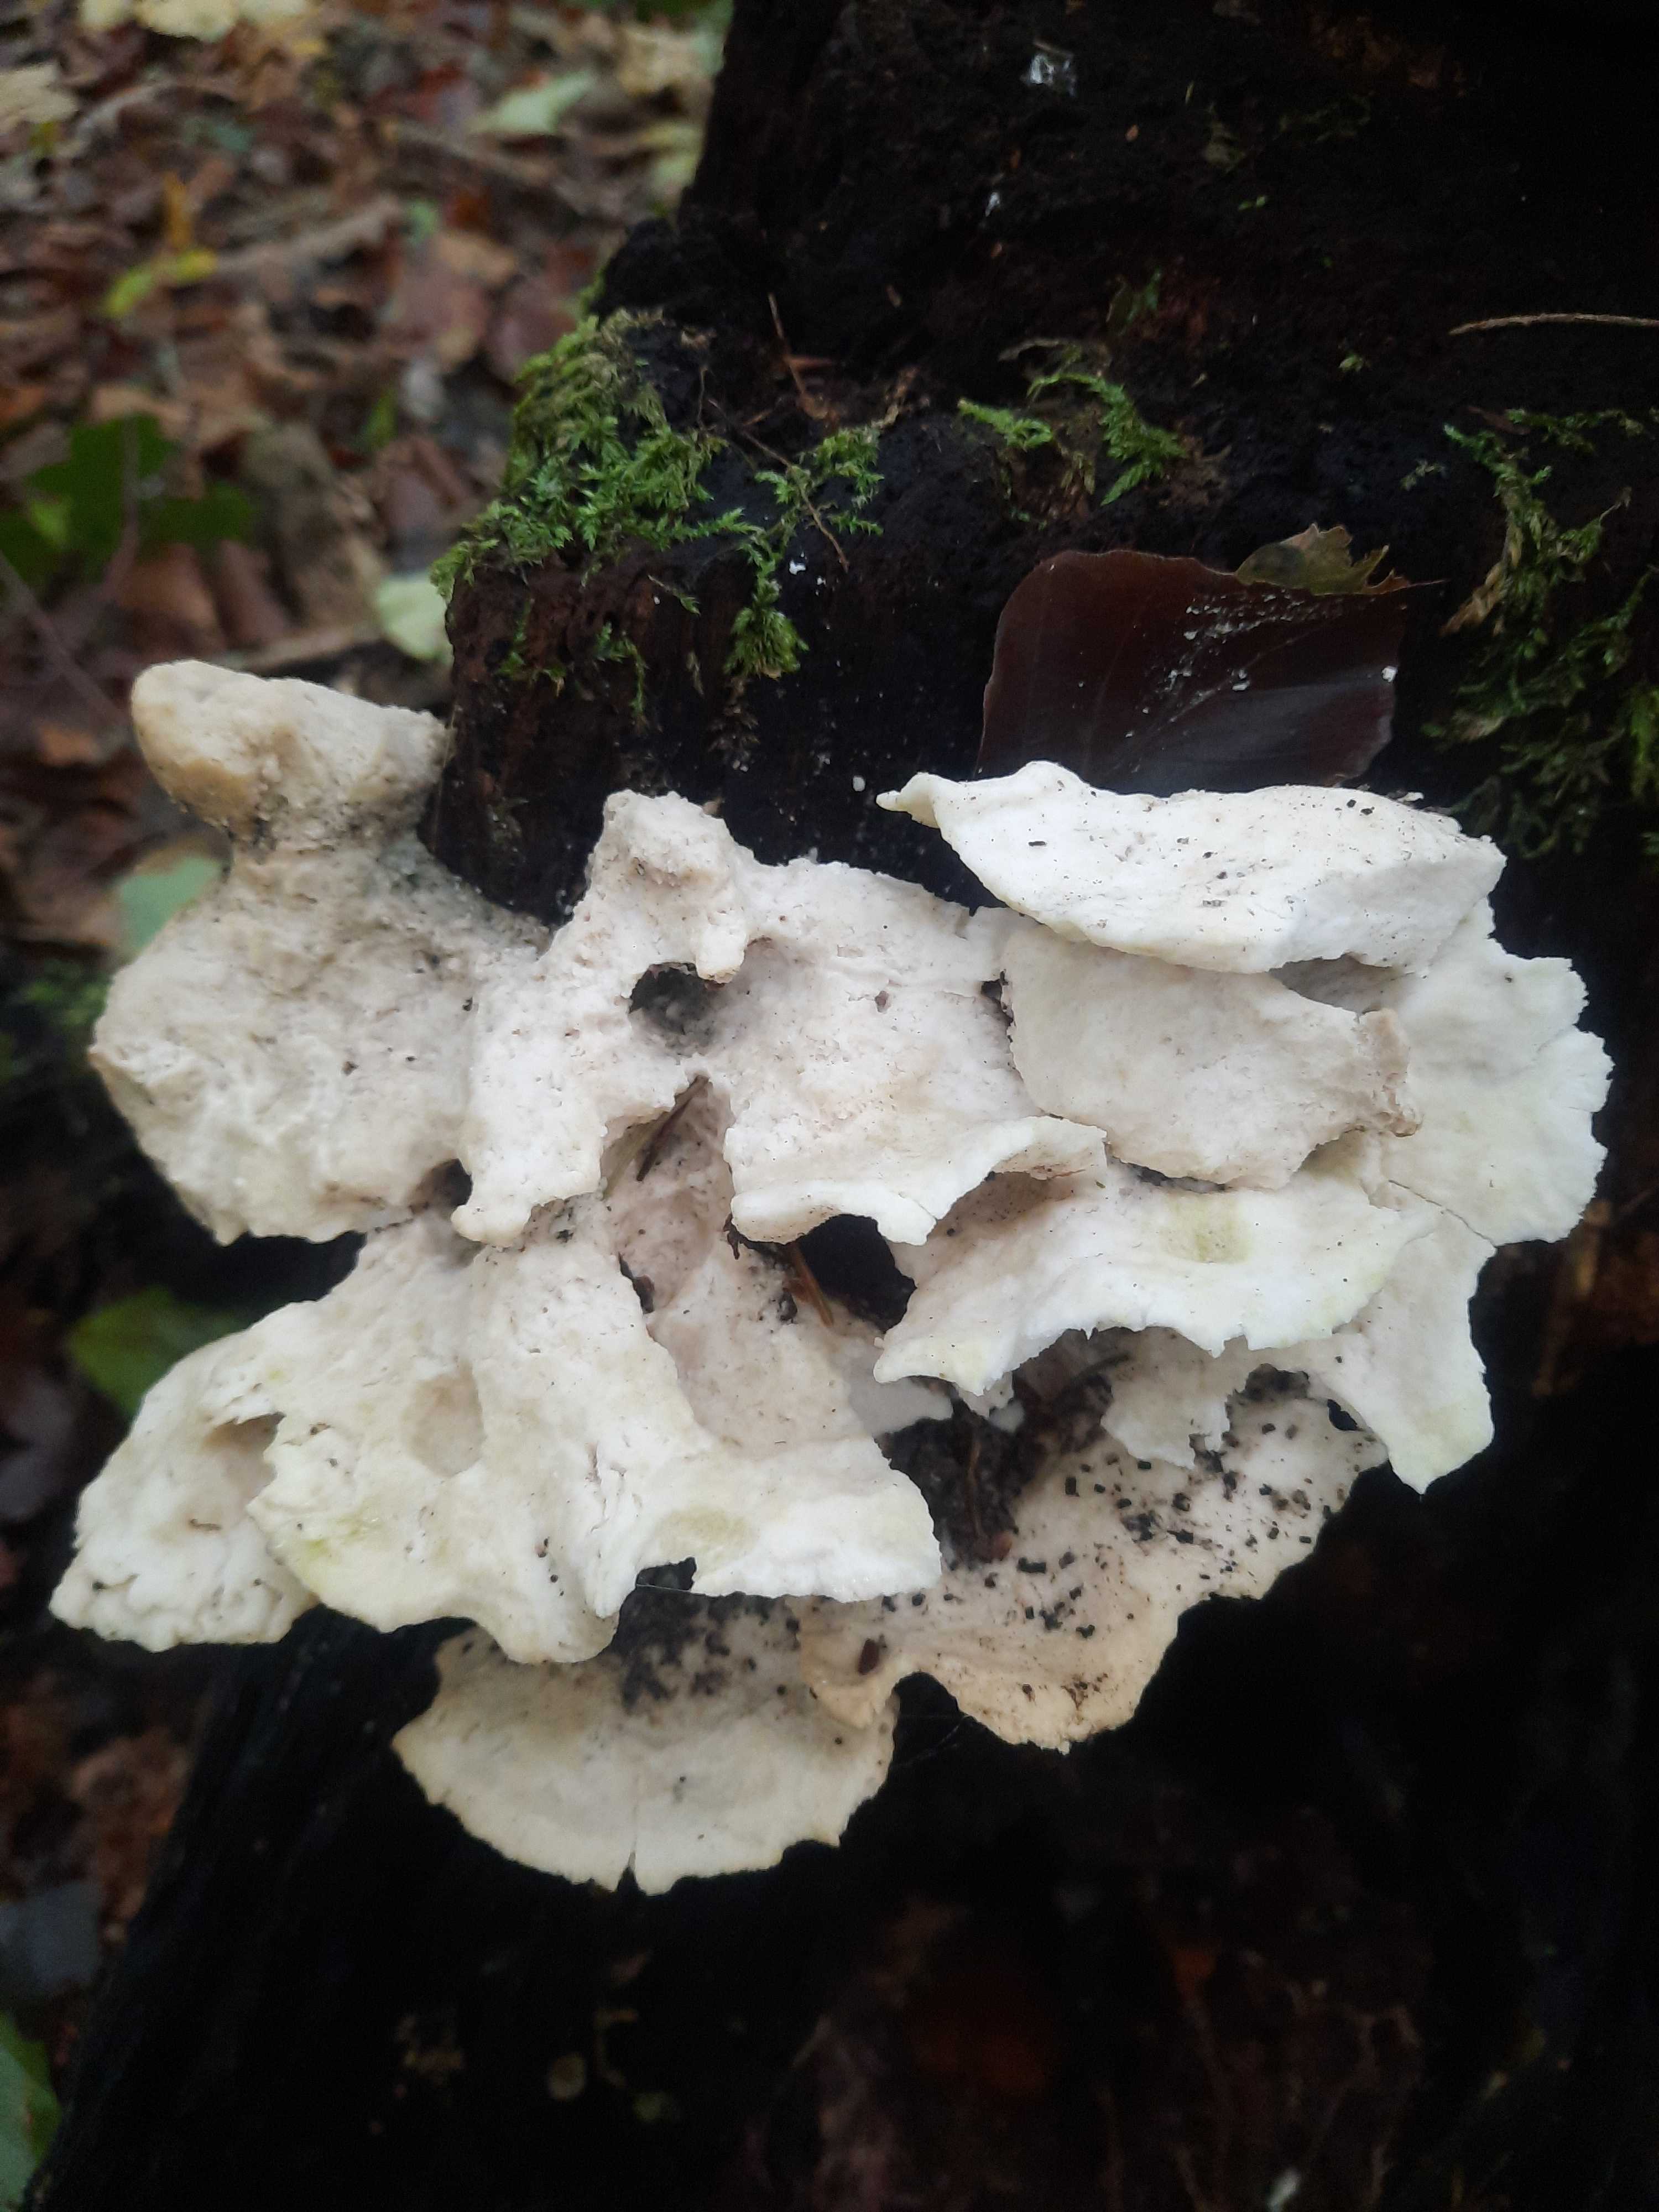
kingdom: Fungi
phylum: Basidiomycota
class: Agaricomycetes
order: Polyporales
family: Incrustoporiaceae
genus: Tyromyces
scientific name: Tyromyces lacteus
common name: mælkehvid kødporesvamp
